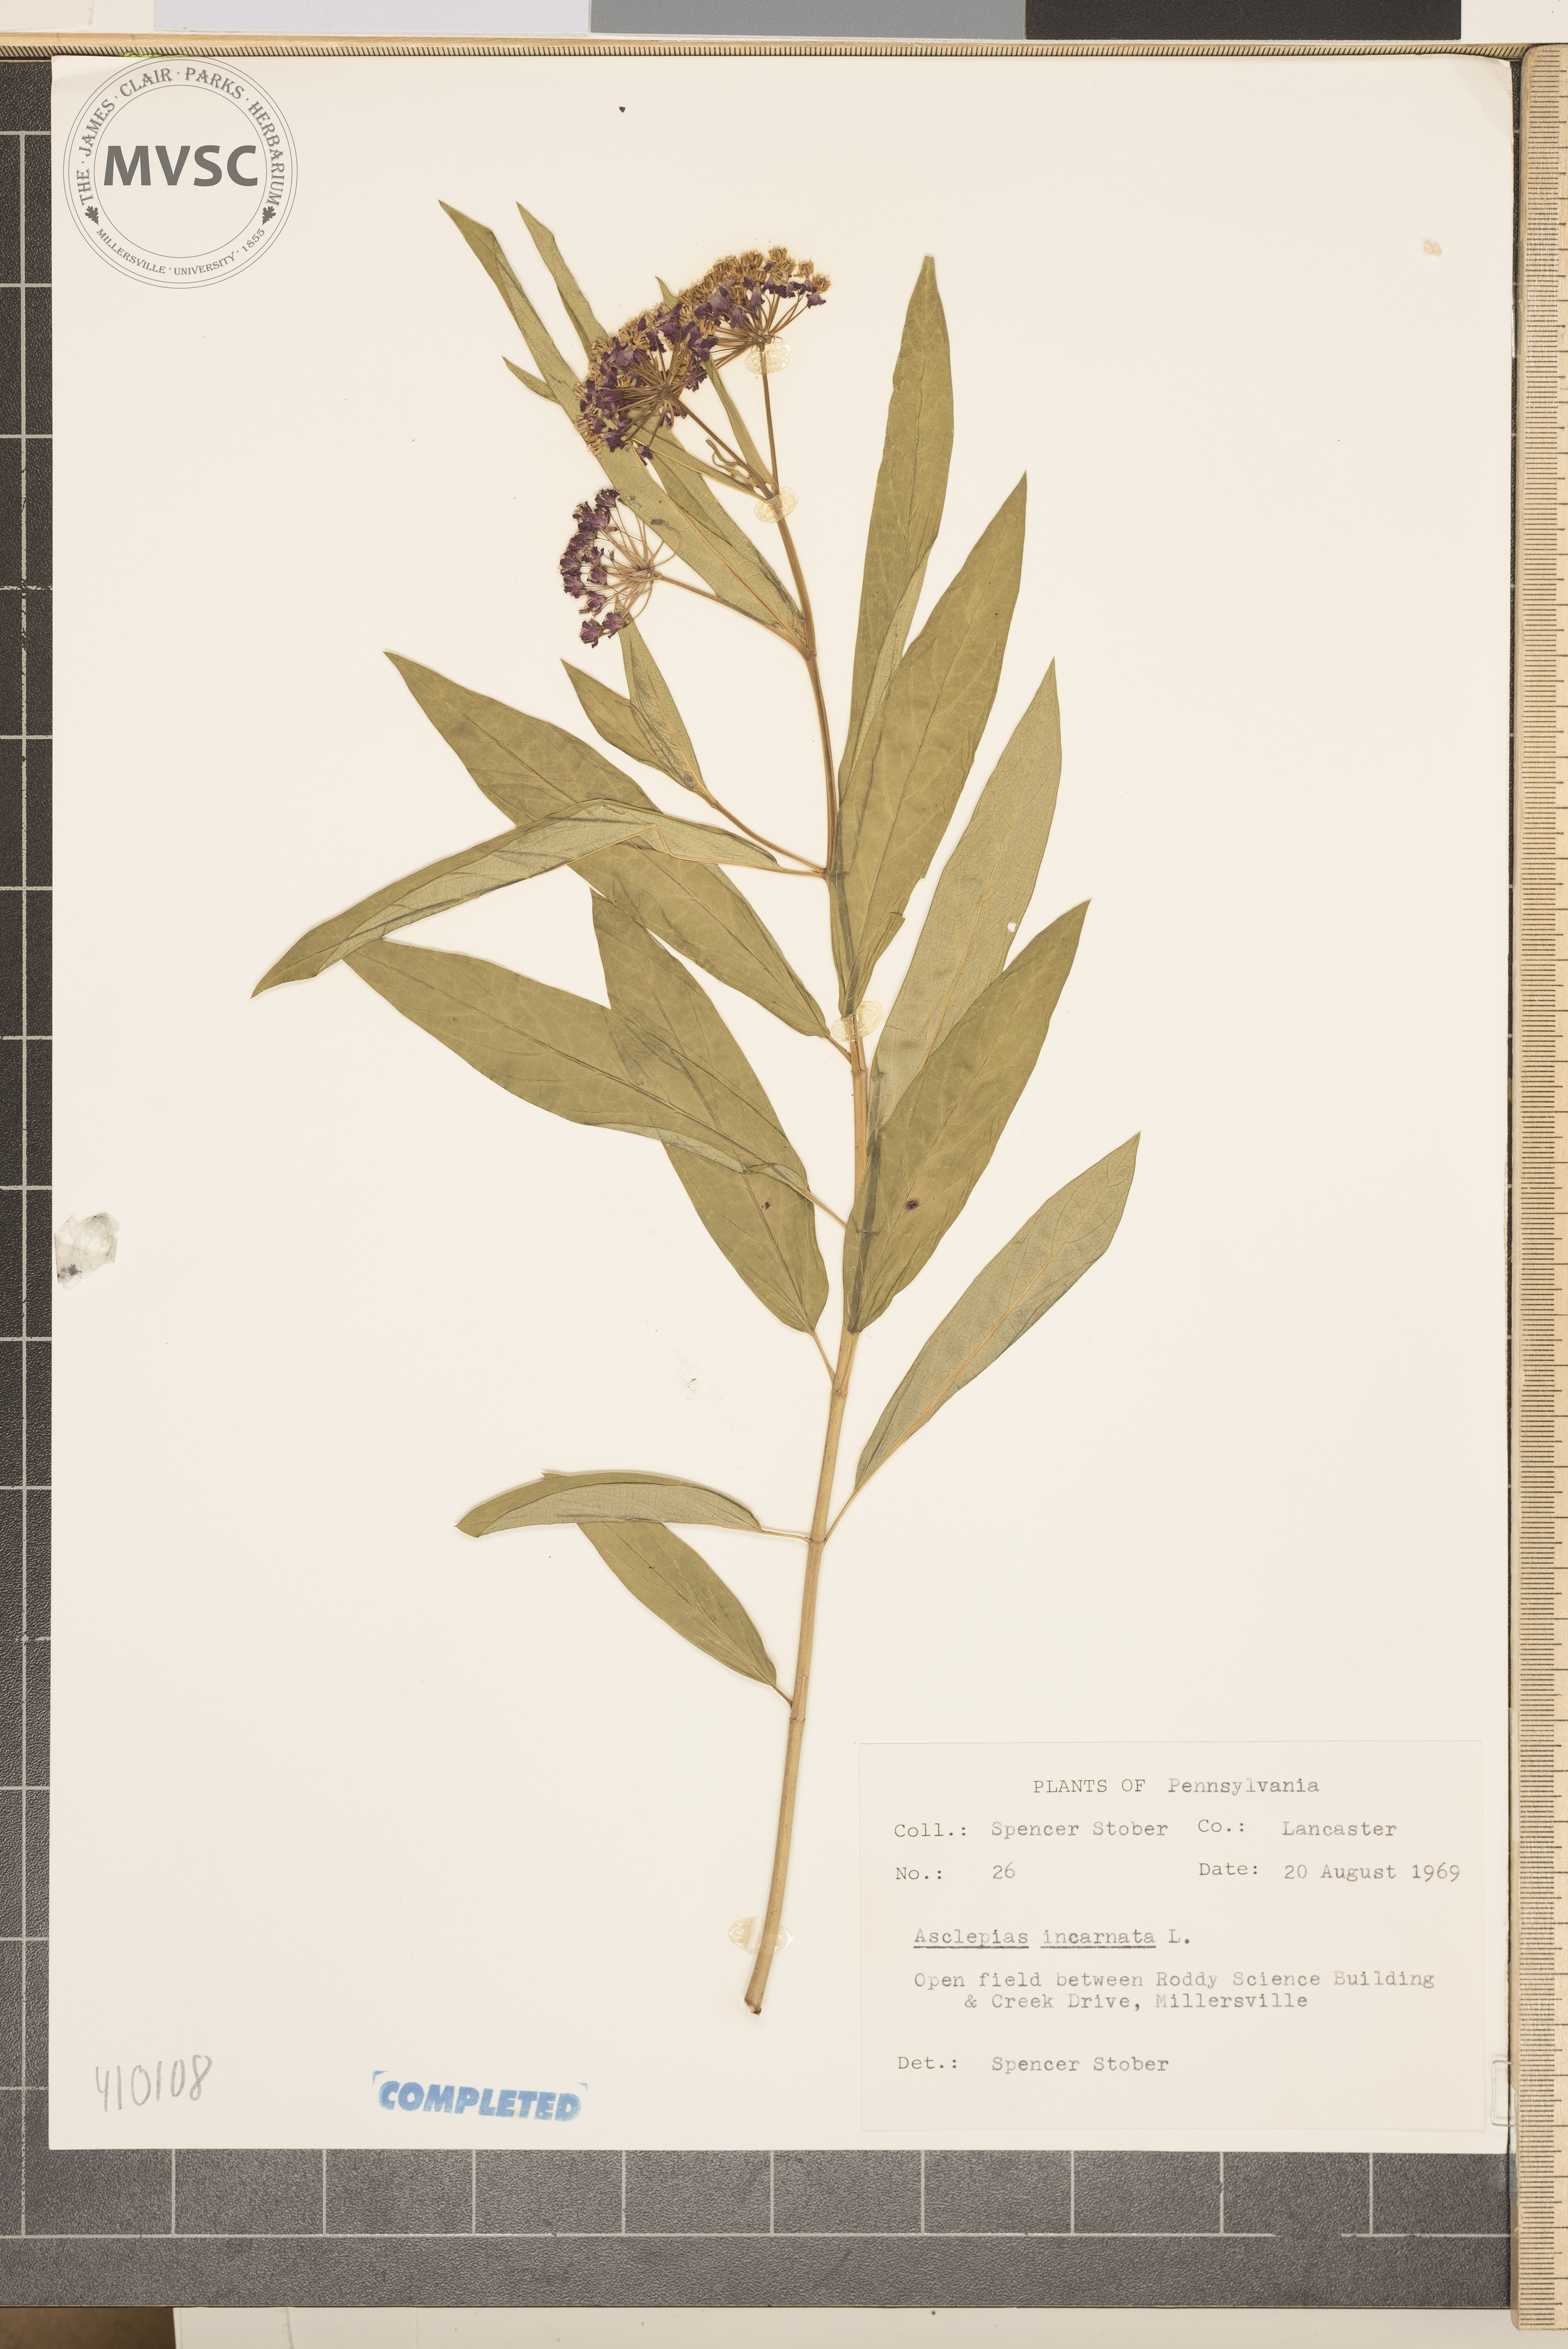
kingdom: Plantae
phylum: Tracheophyta
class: Magnoliopsida
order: Gentianales
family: Apocynaceae
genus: Asclepias
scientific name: Asclepias incarnata
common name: Swamp milkweed
